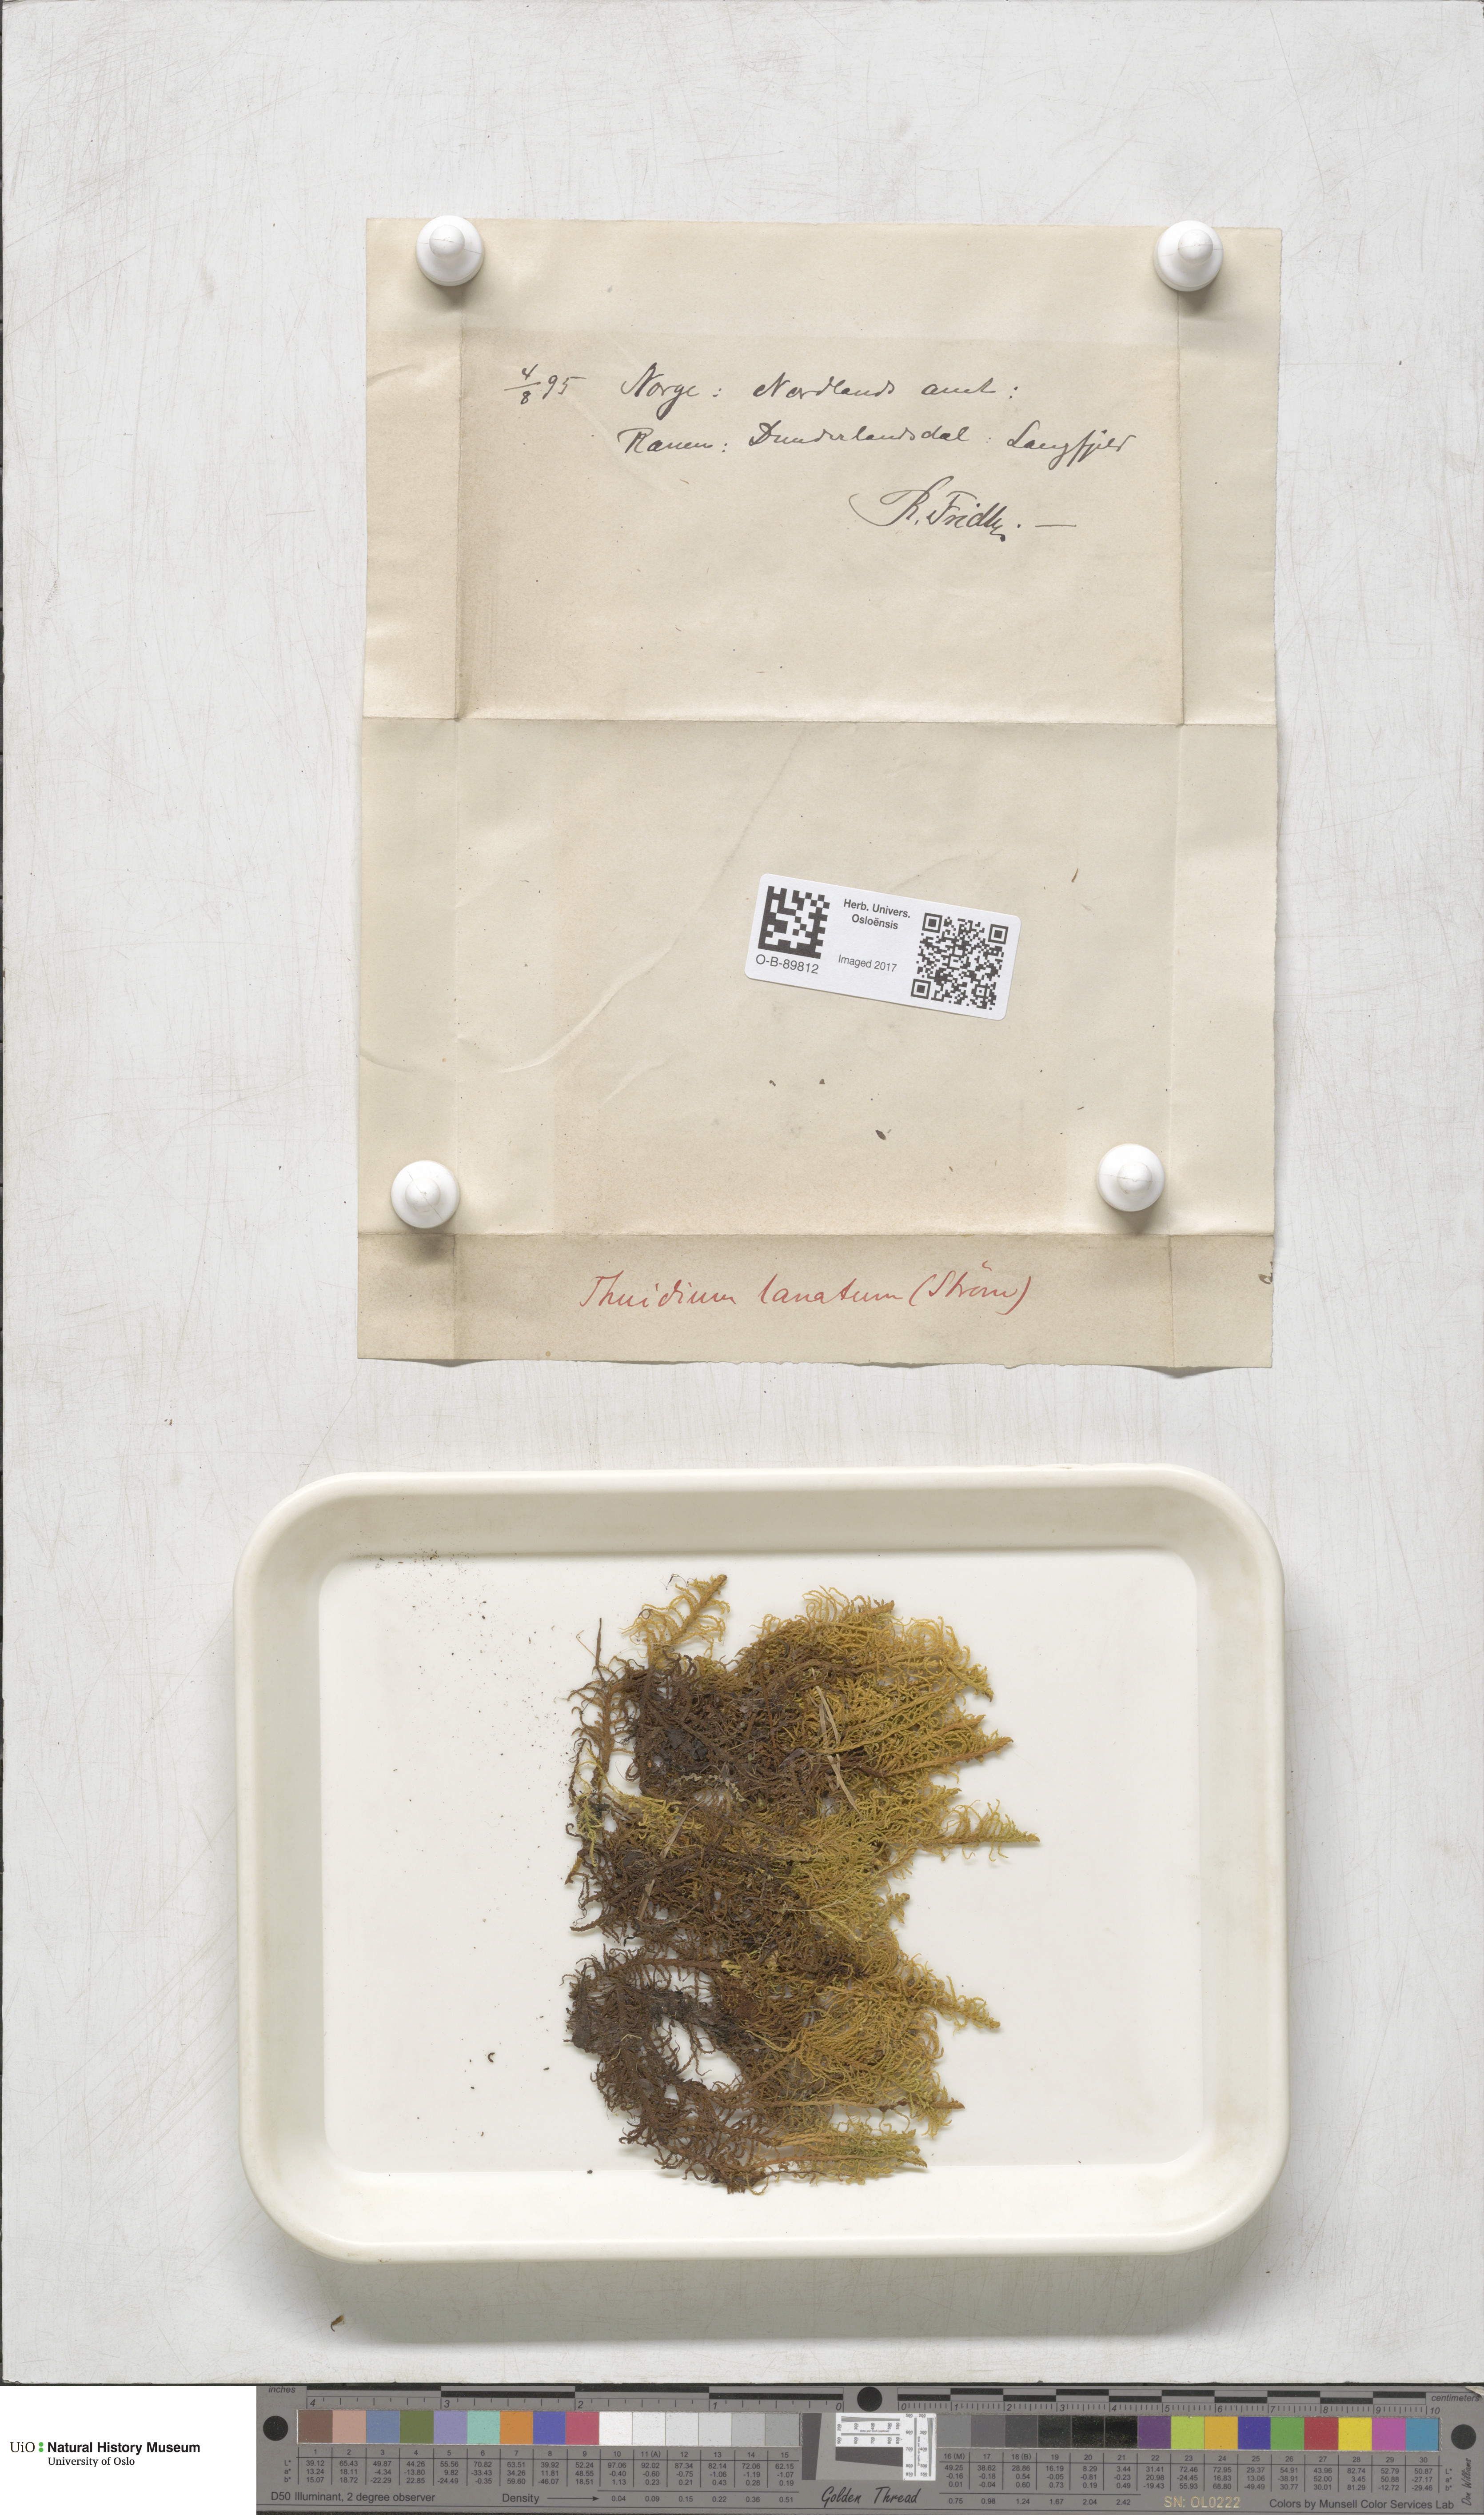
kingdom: Plantae
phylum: Bryophyta
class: Bryopsida
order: Hypnales
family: Helodiaceae
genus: Helodium
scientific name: Helodium blandowii
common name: Blandow's tamarisk-moss
